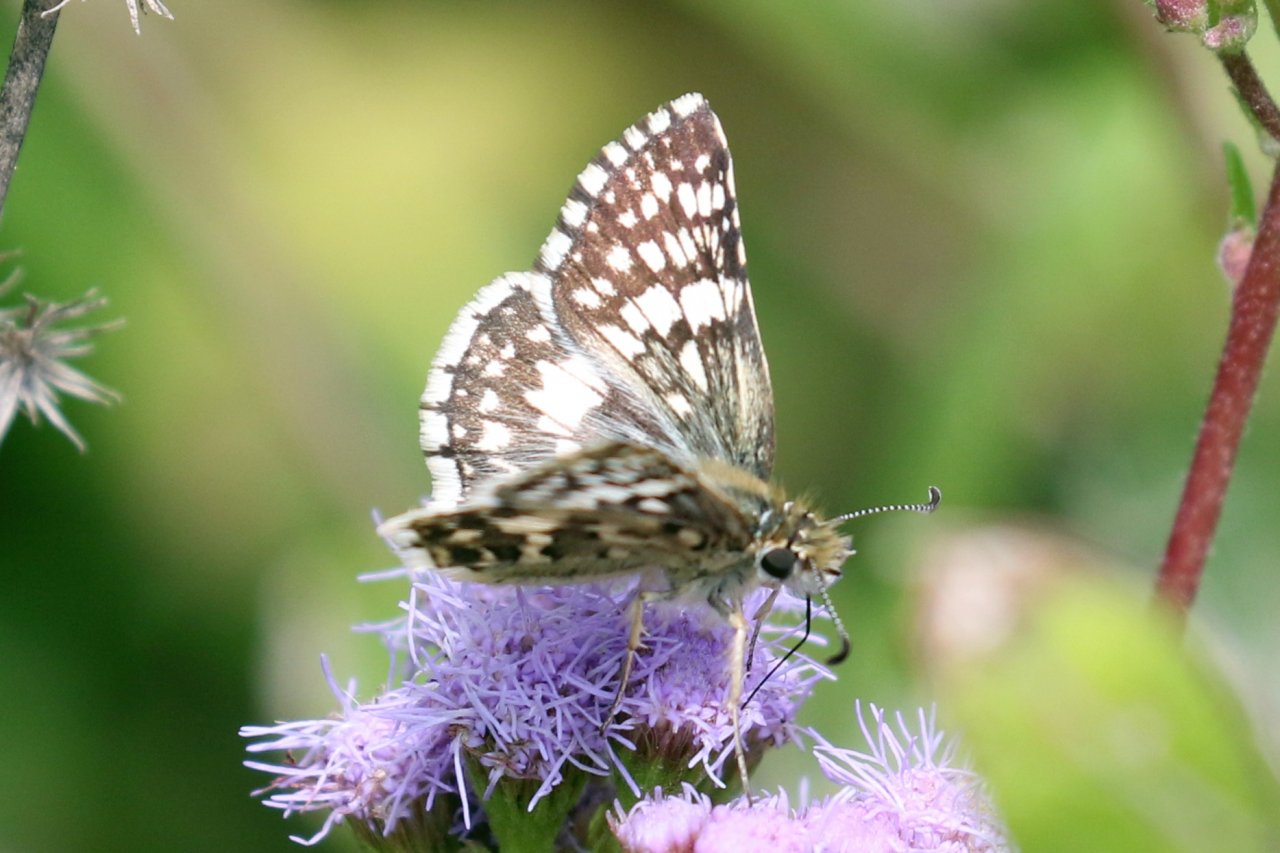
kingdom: Animalia
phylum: Arthropoda
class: Insecta
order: Lepidoptera
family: Hesperiidae
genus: Pyrgus
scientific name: Pyrgus communis
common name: White Checkered-Skipper
